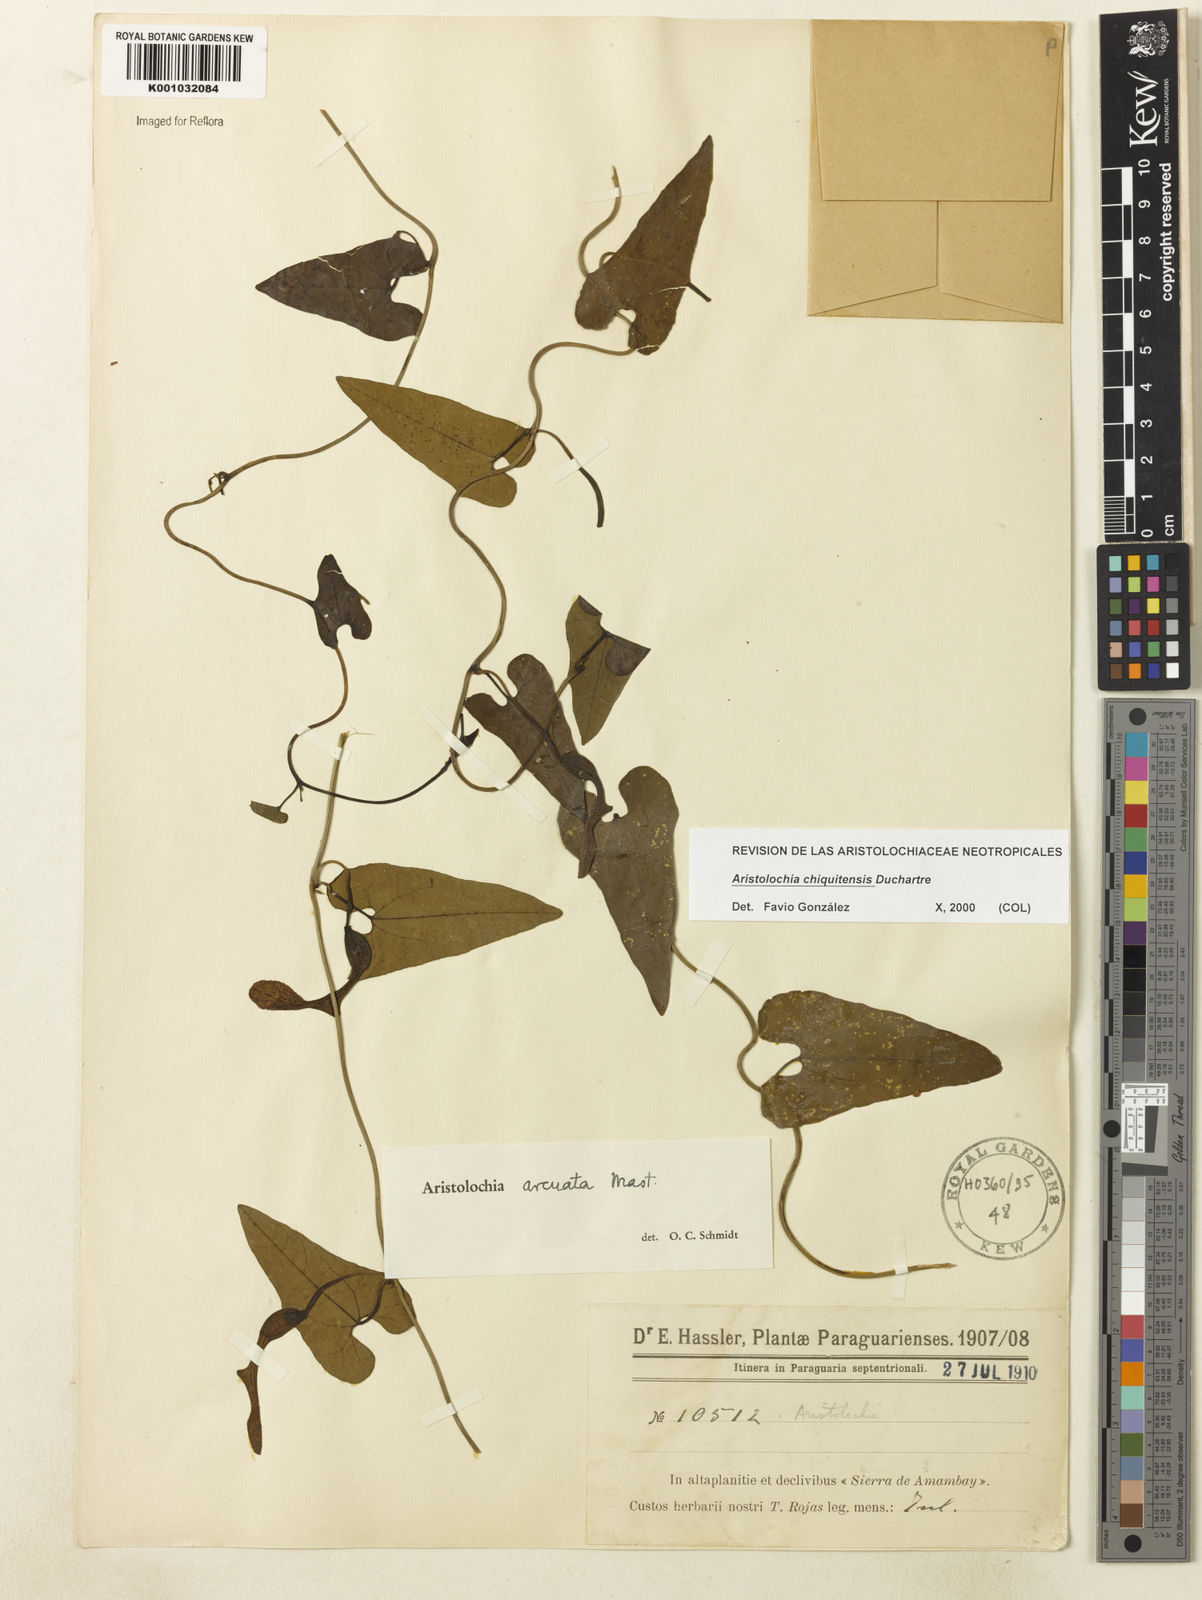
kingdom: Plantae
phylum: Tracheophyta
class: Magnoliopsida
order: Piperales
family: Aristolochiaceae
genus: Aristolochia
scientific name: Aristolochia chiquitensis
